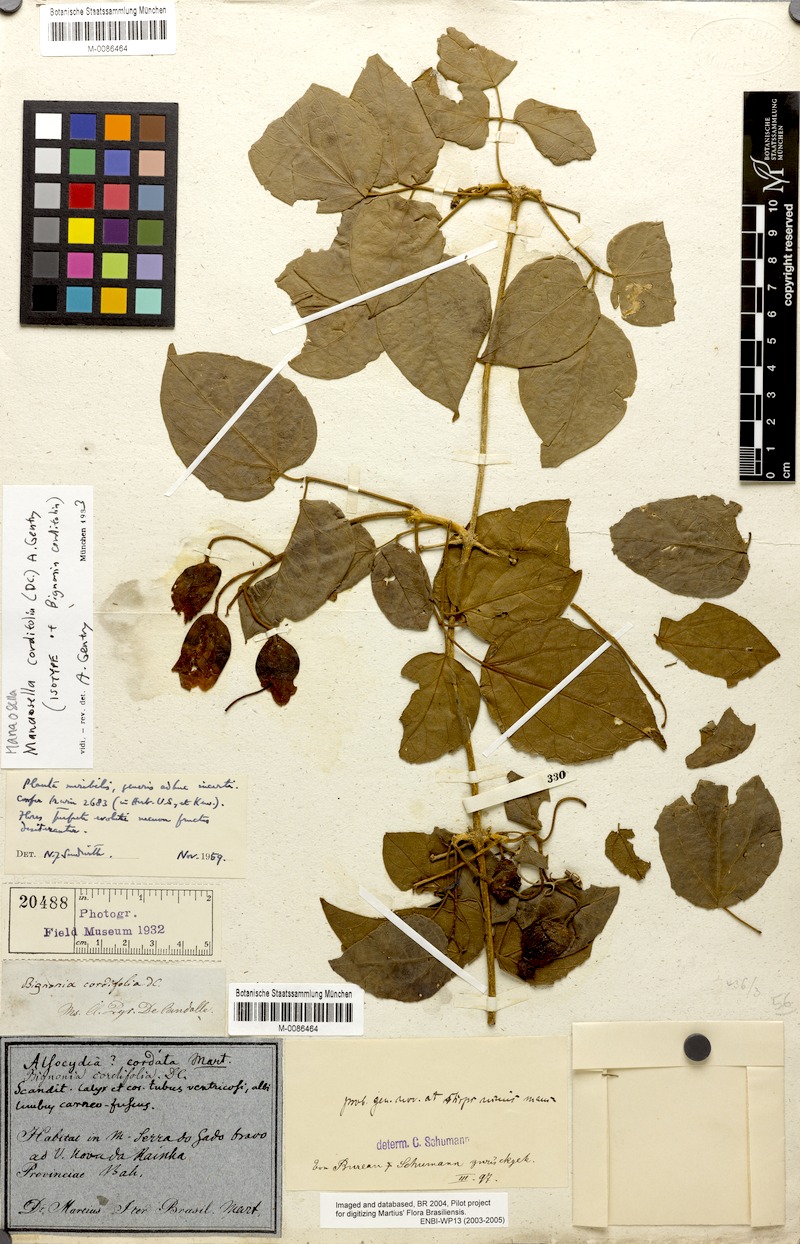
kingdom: Plantae
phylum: Tracheophyta
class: Magnoliopsida
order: Lamiales
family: Bignoniaceae
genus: Manaosella
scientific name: Manaosella cordifolia
